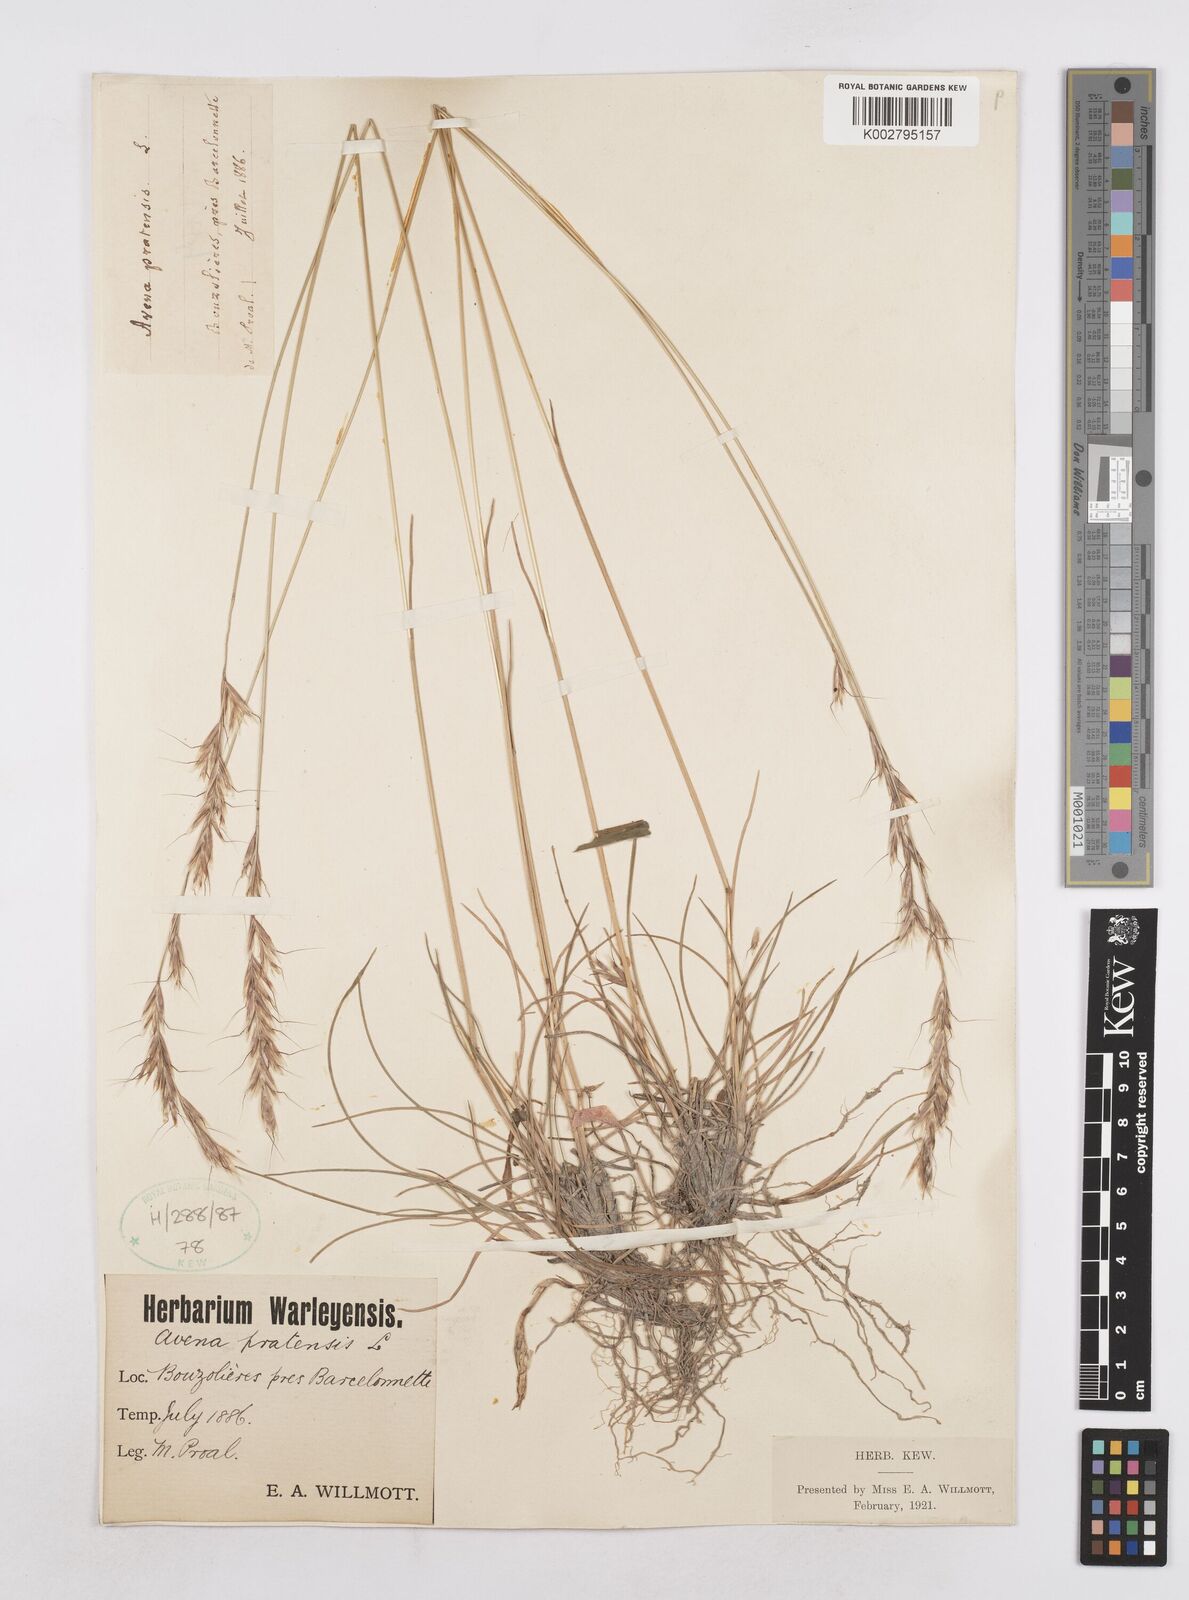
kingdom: Plantae
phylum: Tracheophyta
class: Liliopsida
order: Poales
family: Poaceae
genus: Helictochloa
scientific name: Helictochloa pratensis
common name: Meadow oat grass
